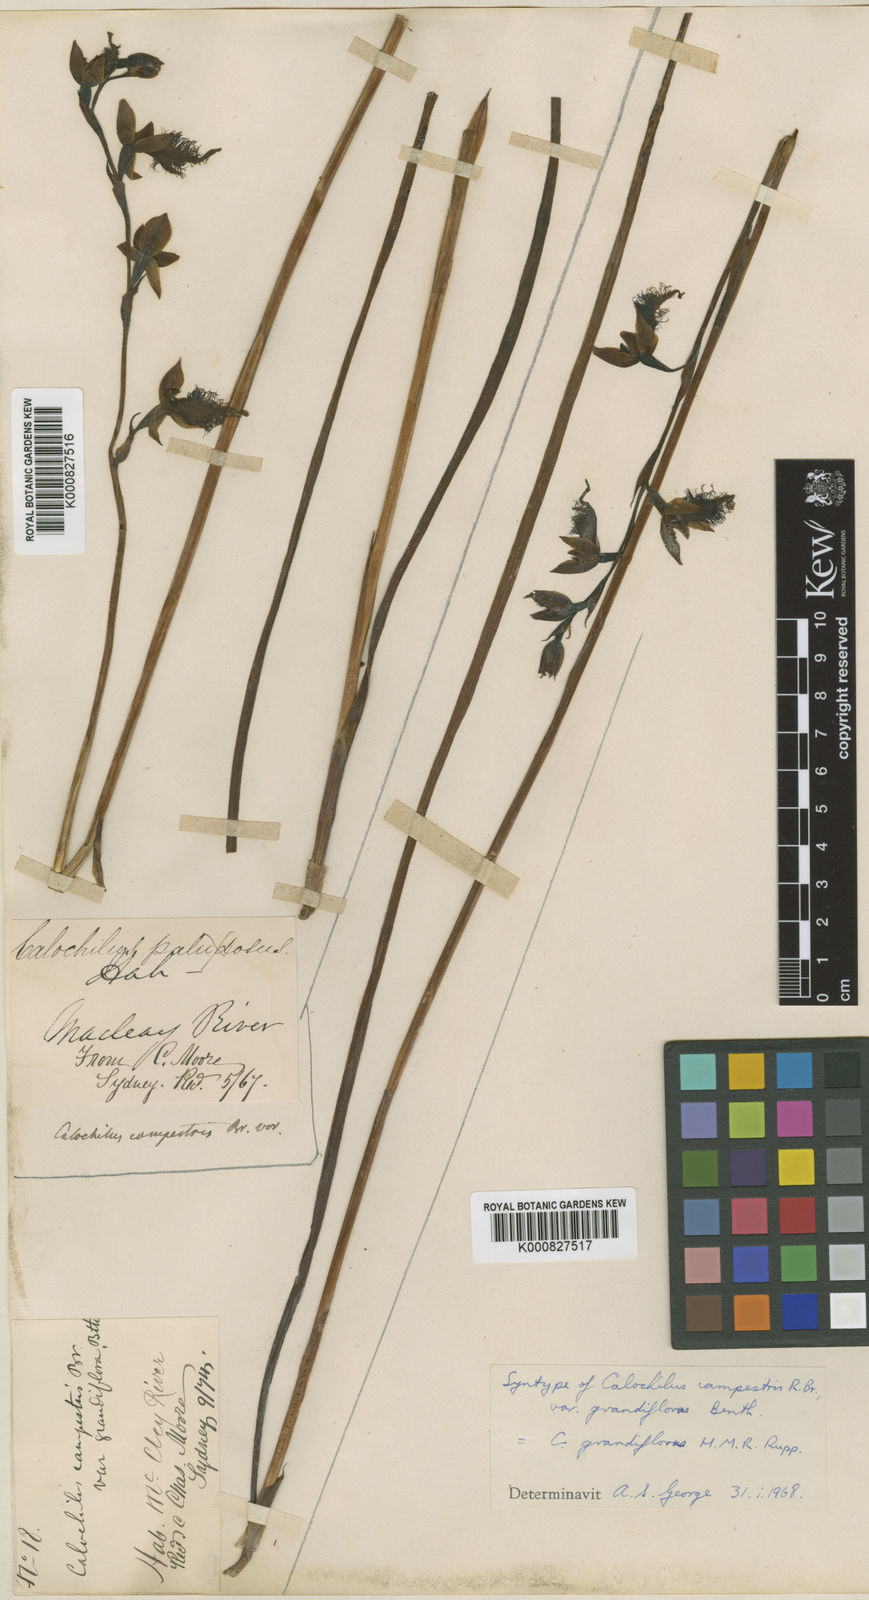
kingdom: Plantae
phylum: Tracheophyta
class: Liliopsida
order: Asparagales
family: Orchidaceae
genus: Calochilus
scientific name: Calochilus grandiflorus
